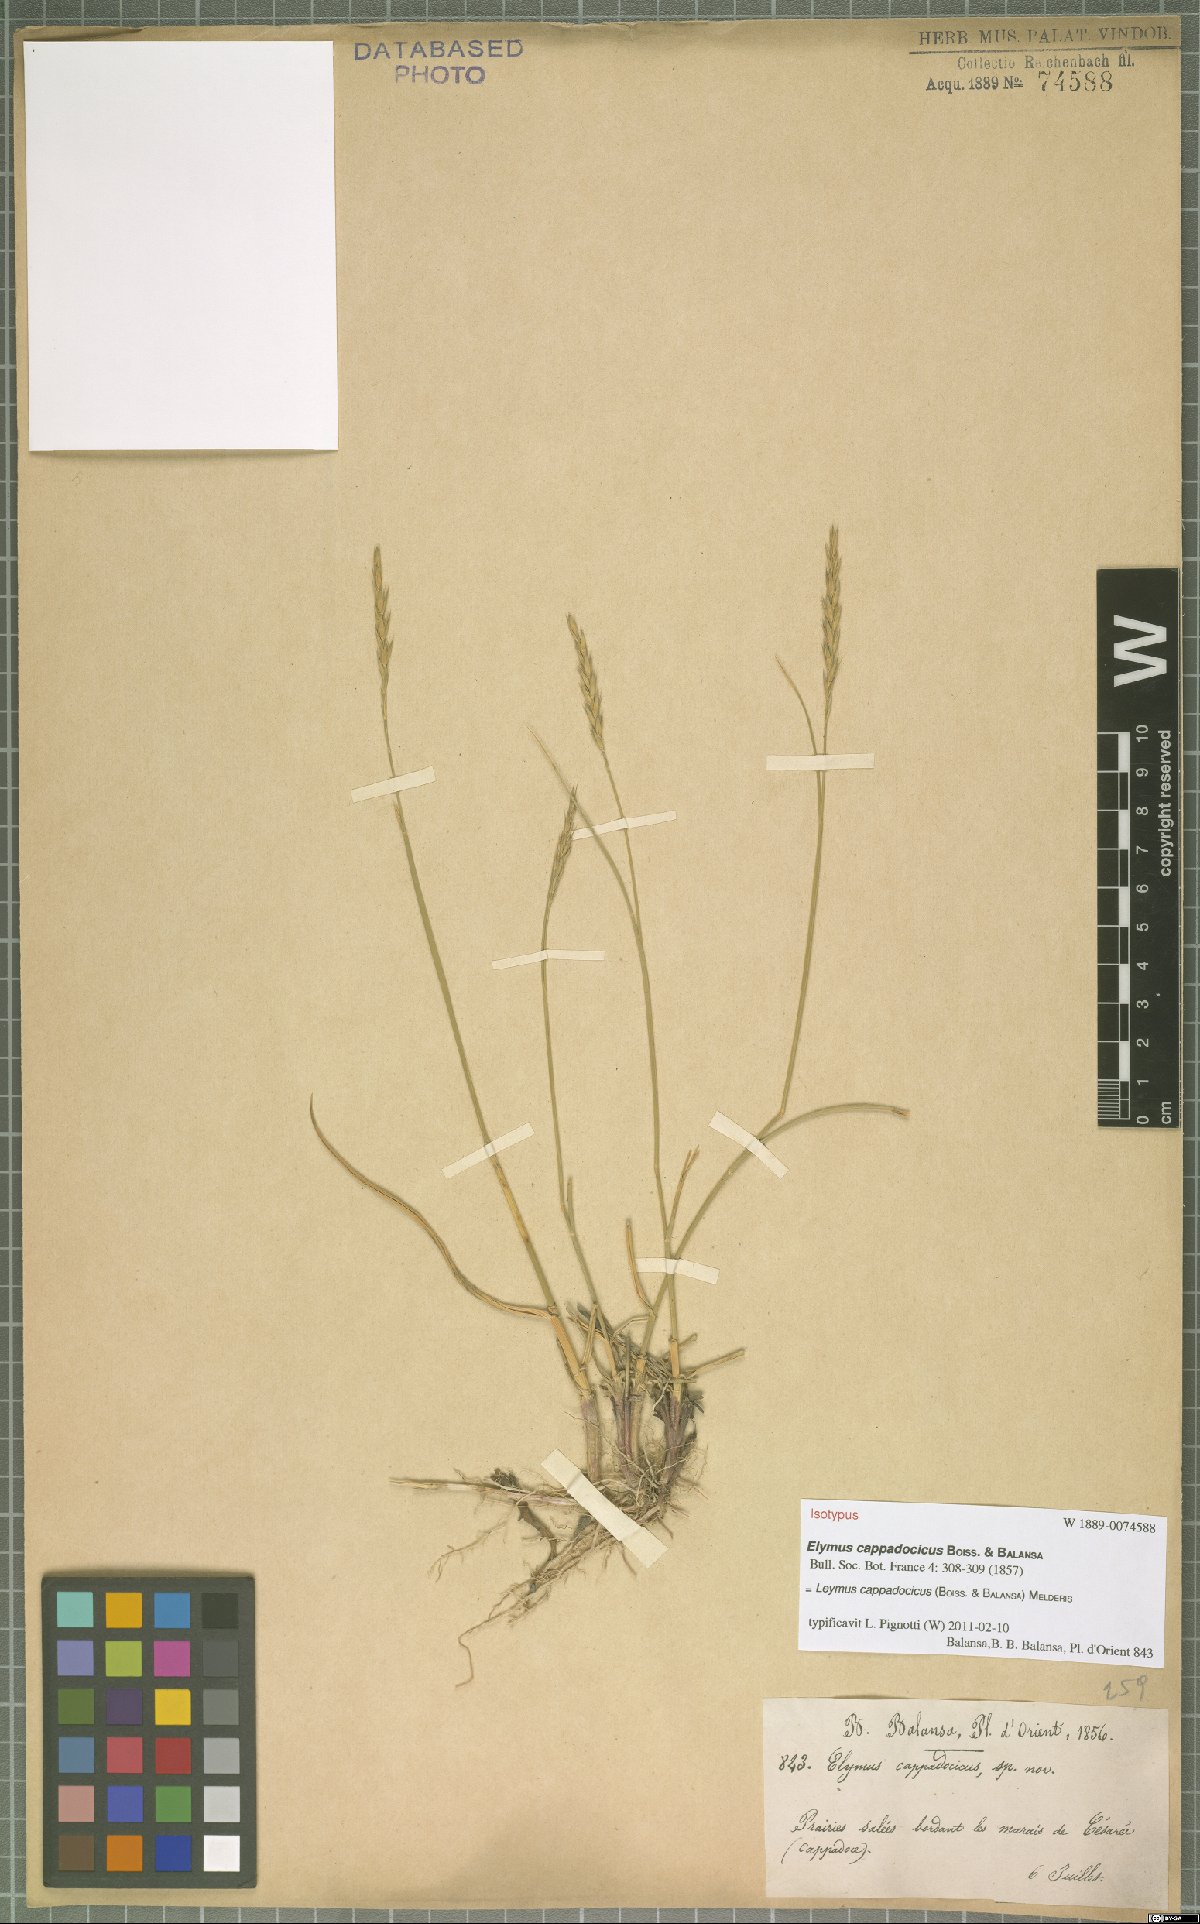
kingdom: Plantae
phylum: Tracheophyta
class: Liliopsida
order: Poales
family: Poaceae
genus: Leymus
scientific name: Leymus cappadocicus
